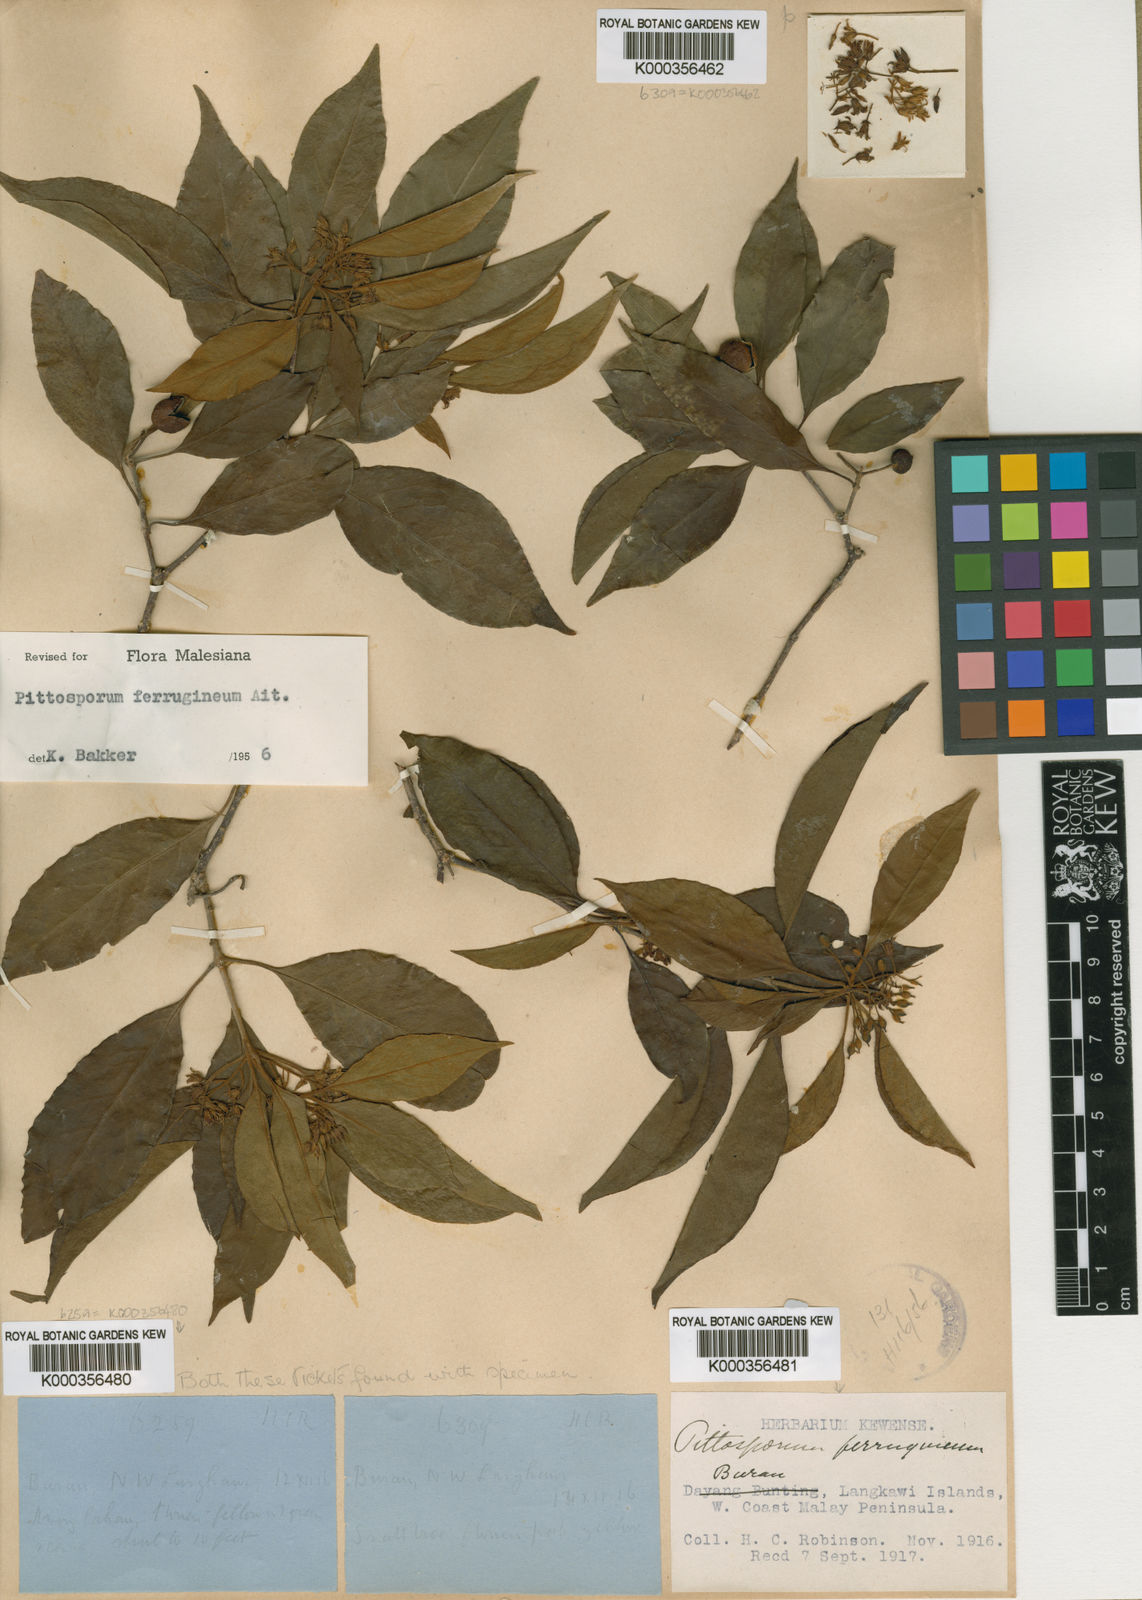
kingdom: Plantae
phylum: Tracheophyta
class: Magnoliopsida
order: Apiales
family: Pittosporaceae
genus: Pittosporum
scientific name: Pittosporum ferrugineum
